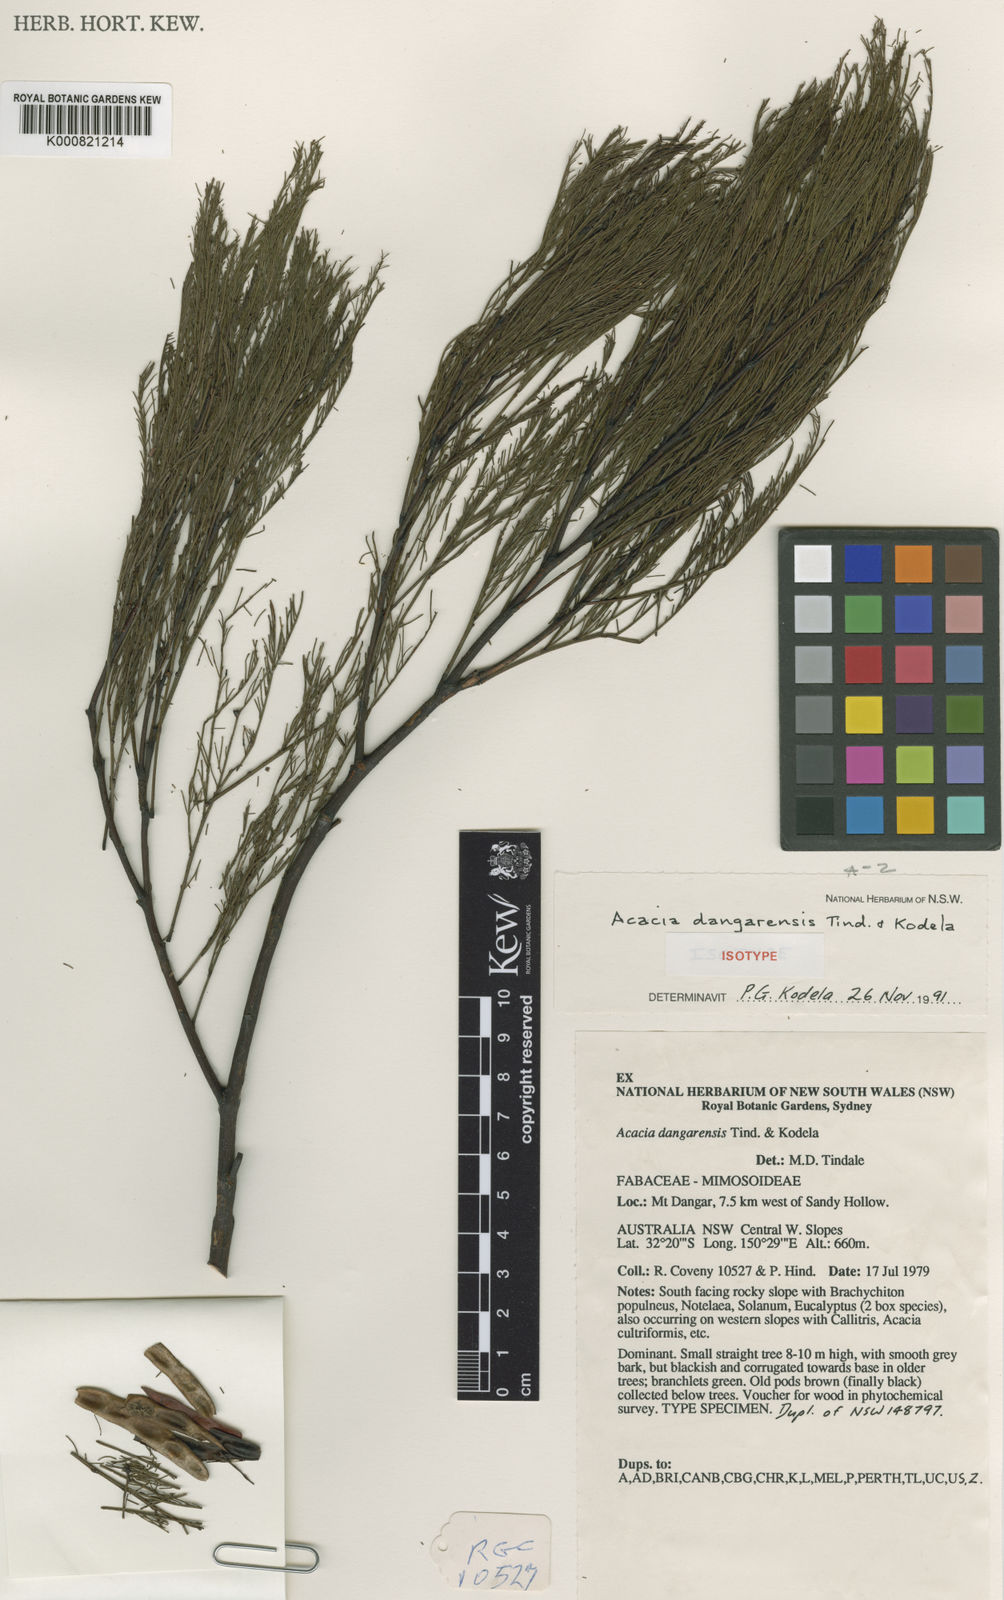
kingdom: Plantae
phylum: Tracheophyta
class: Magnoliopsida
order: Fabales
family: Fabaceae
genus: Acacia
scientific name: Acacia dangarensis
